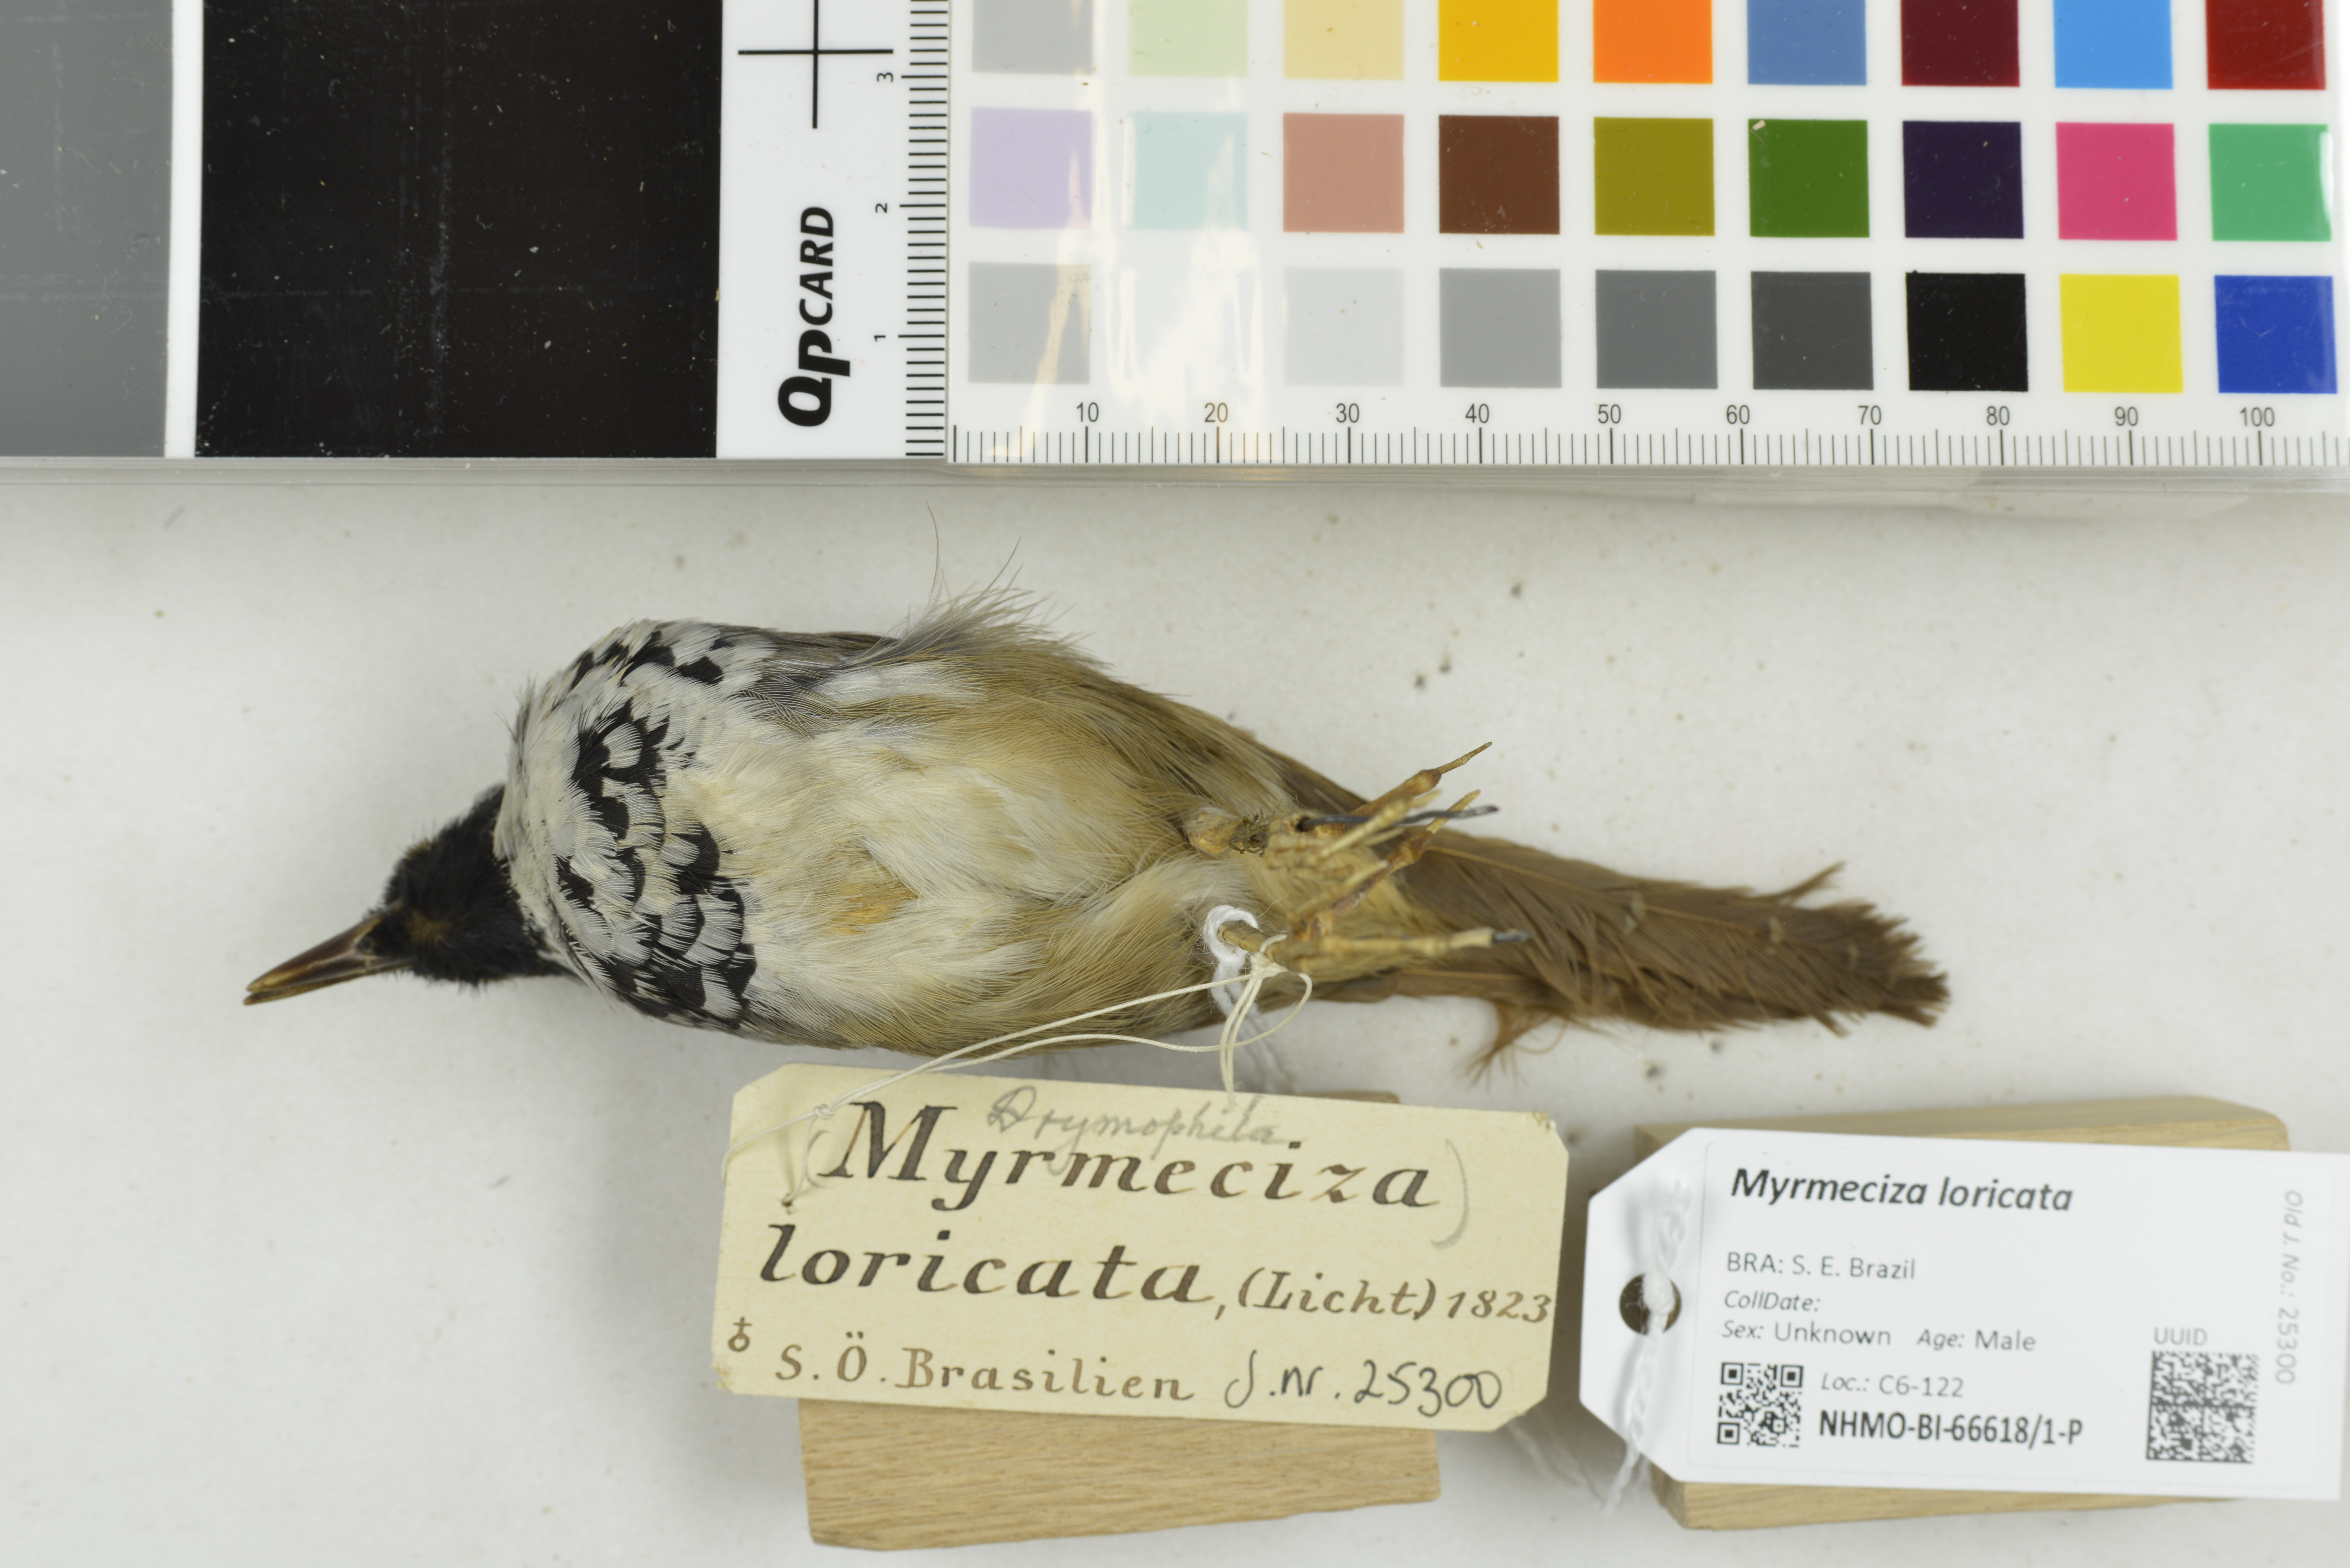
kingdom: Animalia
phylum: Chordata
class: Aves
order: Passeriformes
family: Thamnophilidae
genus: Myrmeciza
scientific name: Myrmeciza loricata
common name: White-bibbed antbird
